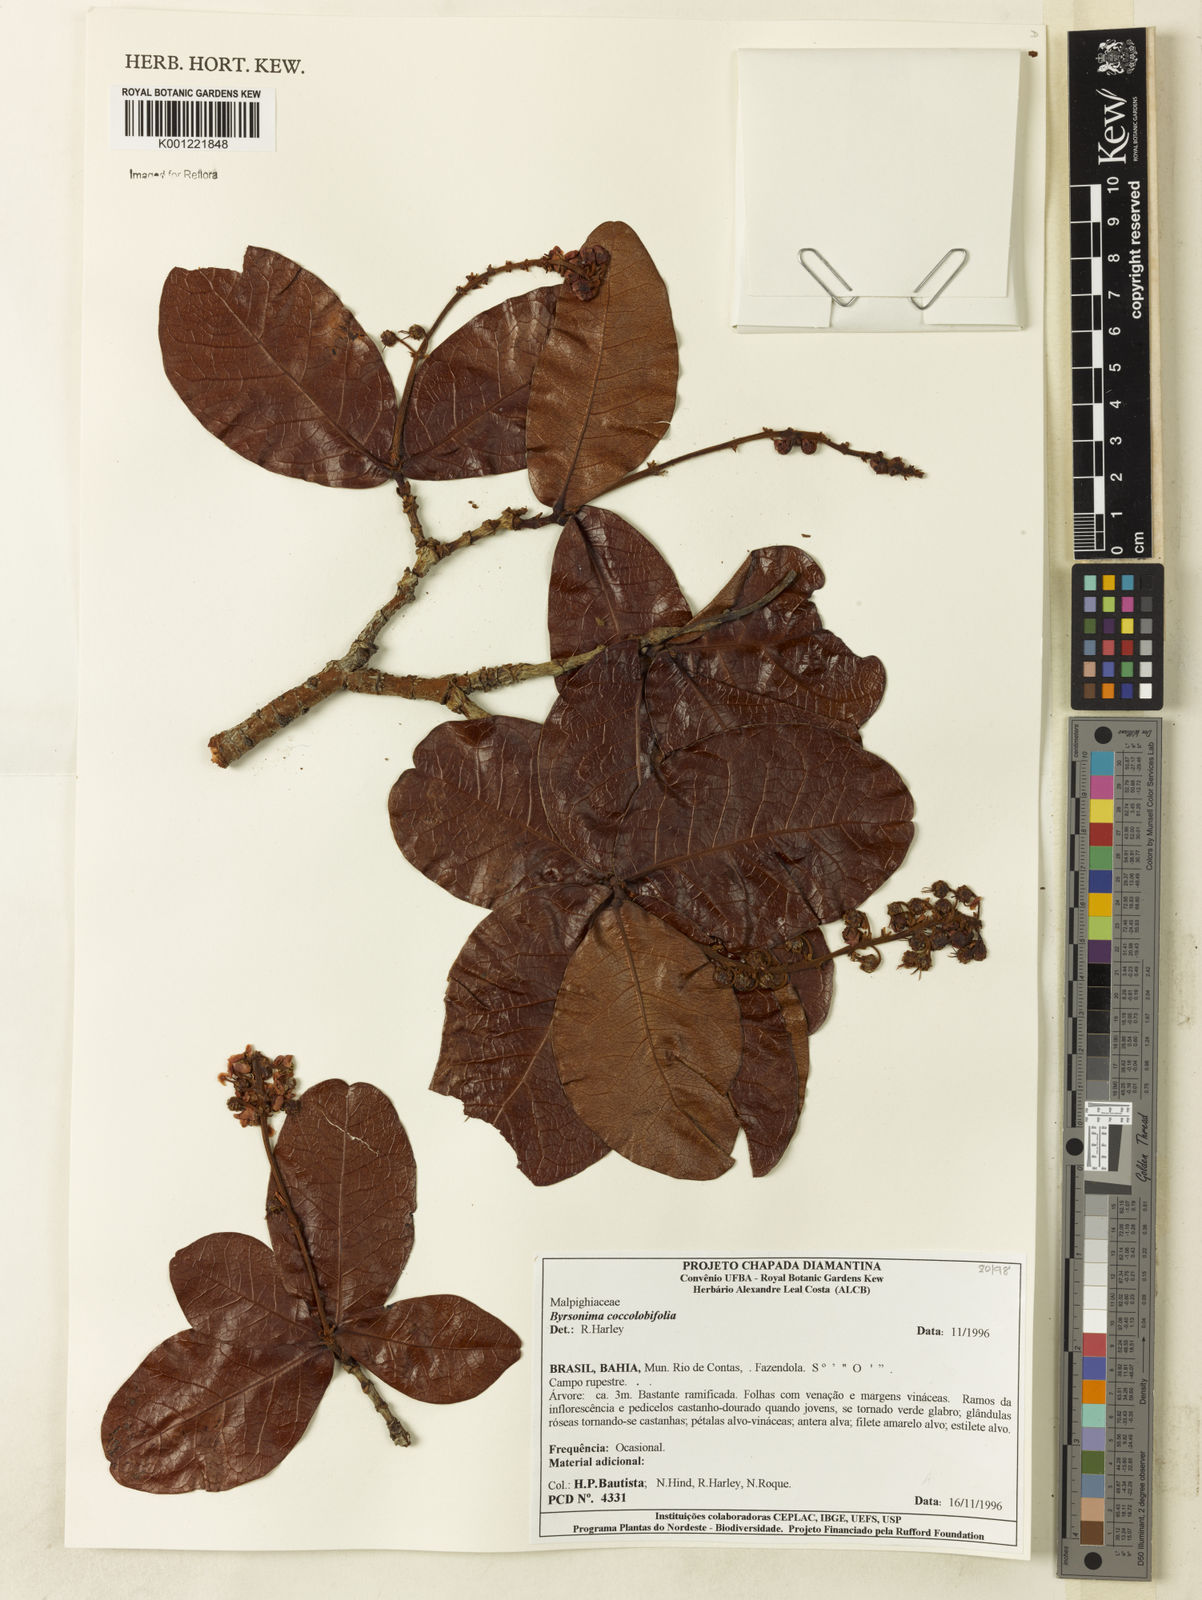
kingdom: Plantae
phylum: Tracheophyta
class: Magnoliopsida
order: Malpighiales
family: Malpighiaceae
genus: Byrsonima
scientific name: Byrsonima coccolobifolia
